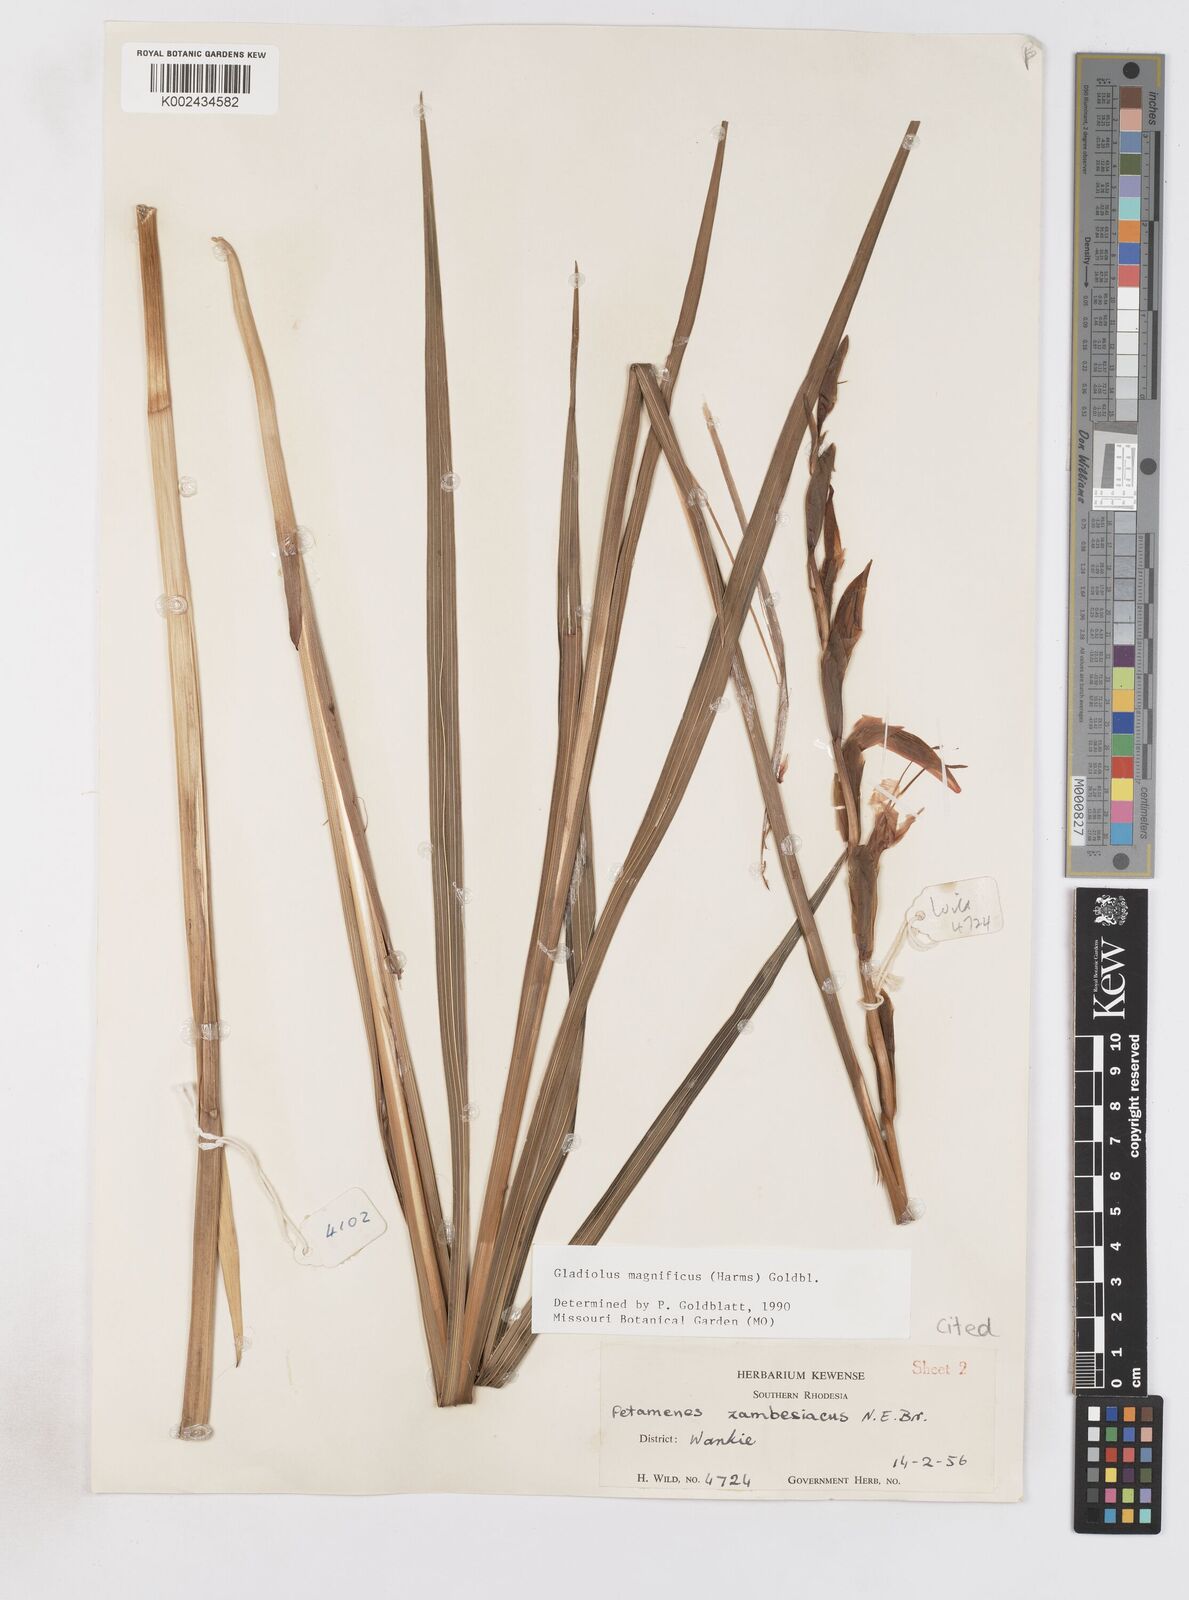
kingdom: Plantae
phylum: Tracheophyta
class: Liliopsida
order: Asparagales
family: Iridaceae
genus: Gladiolus
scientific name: Gladiolus magnificus
